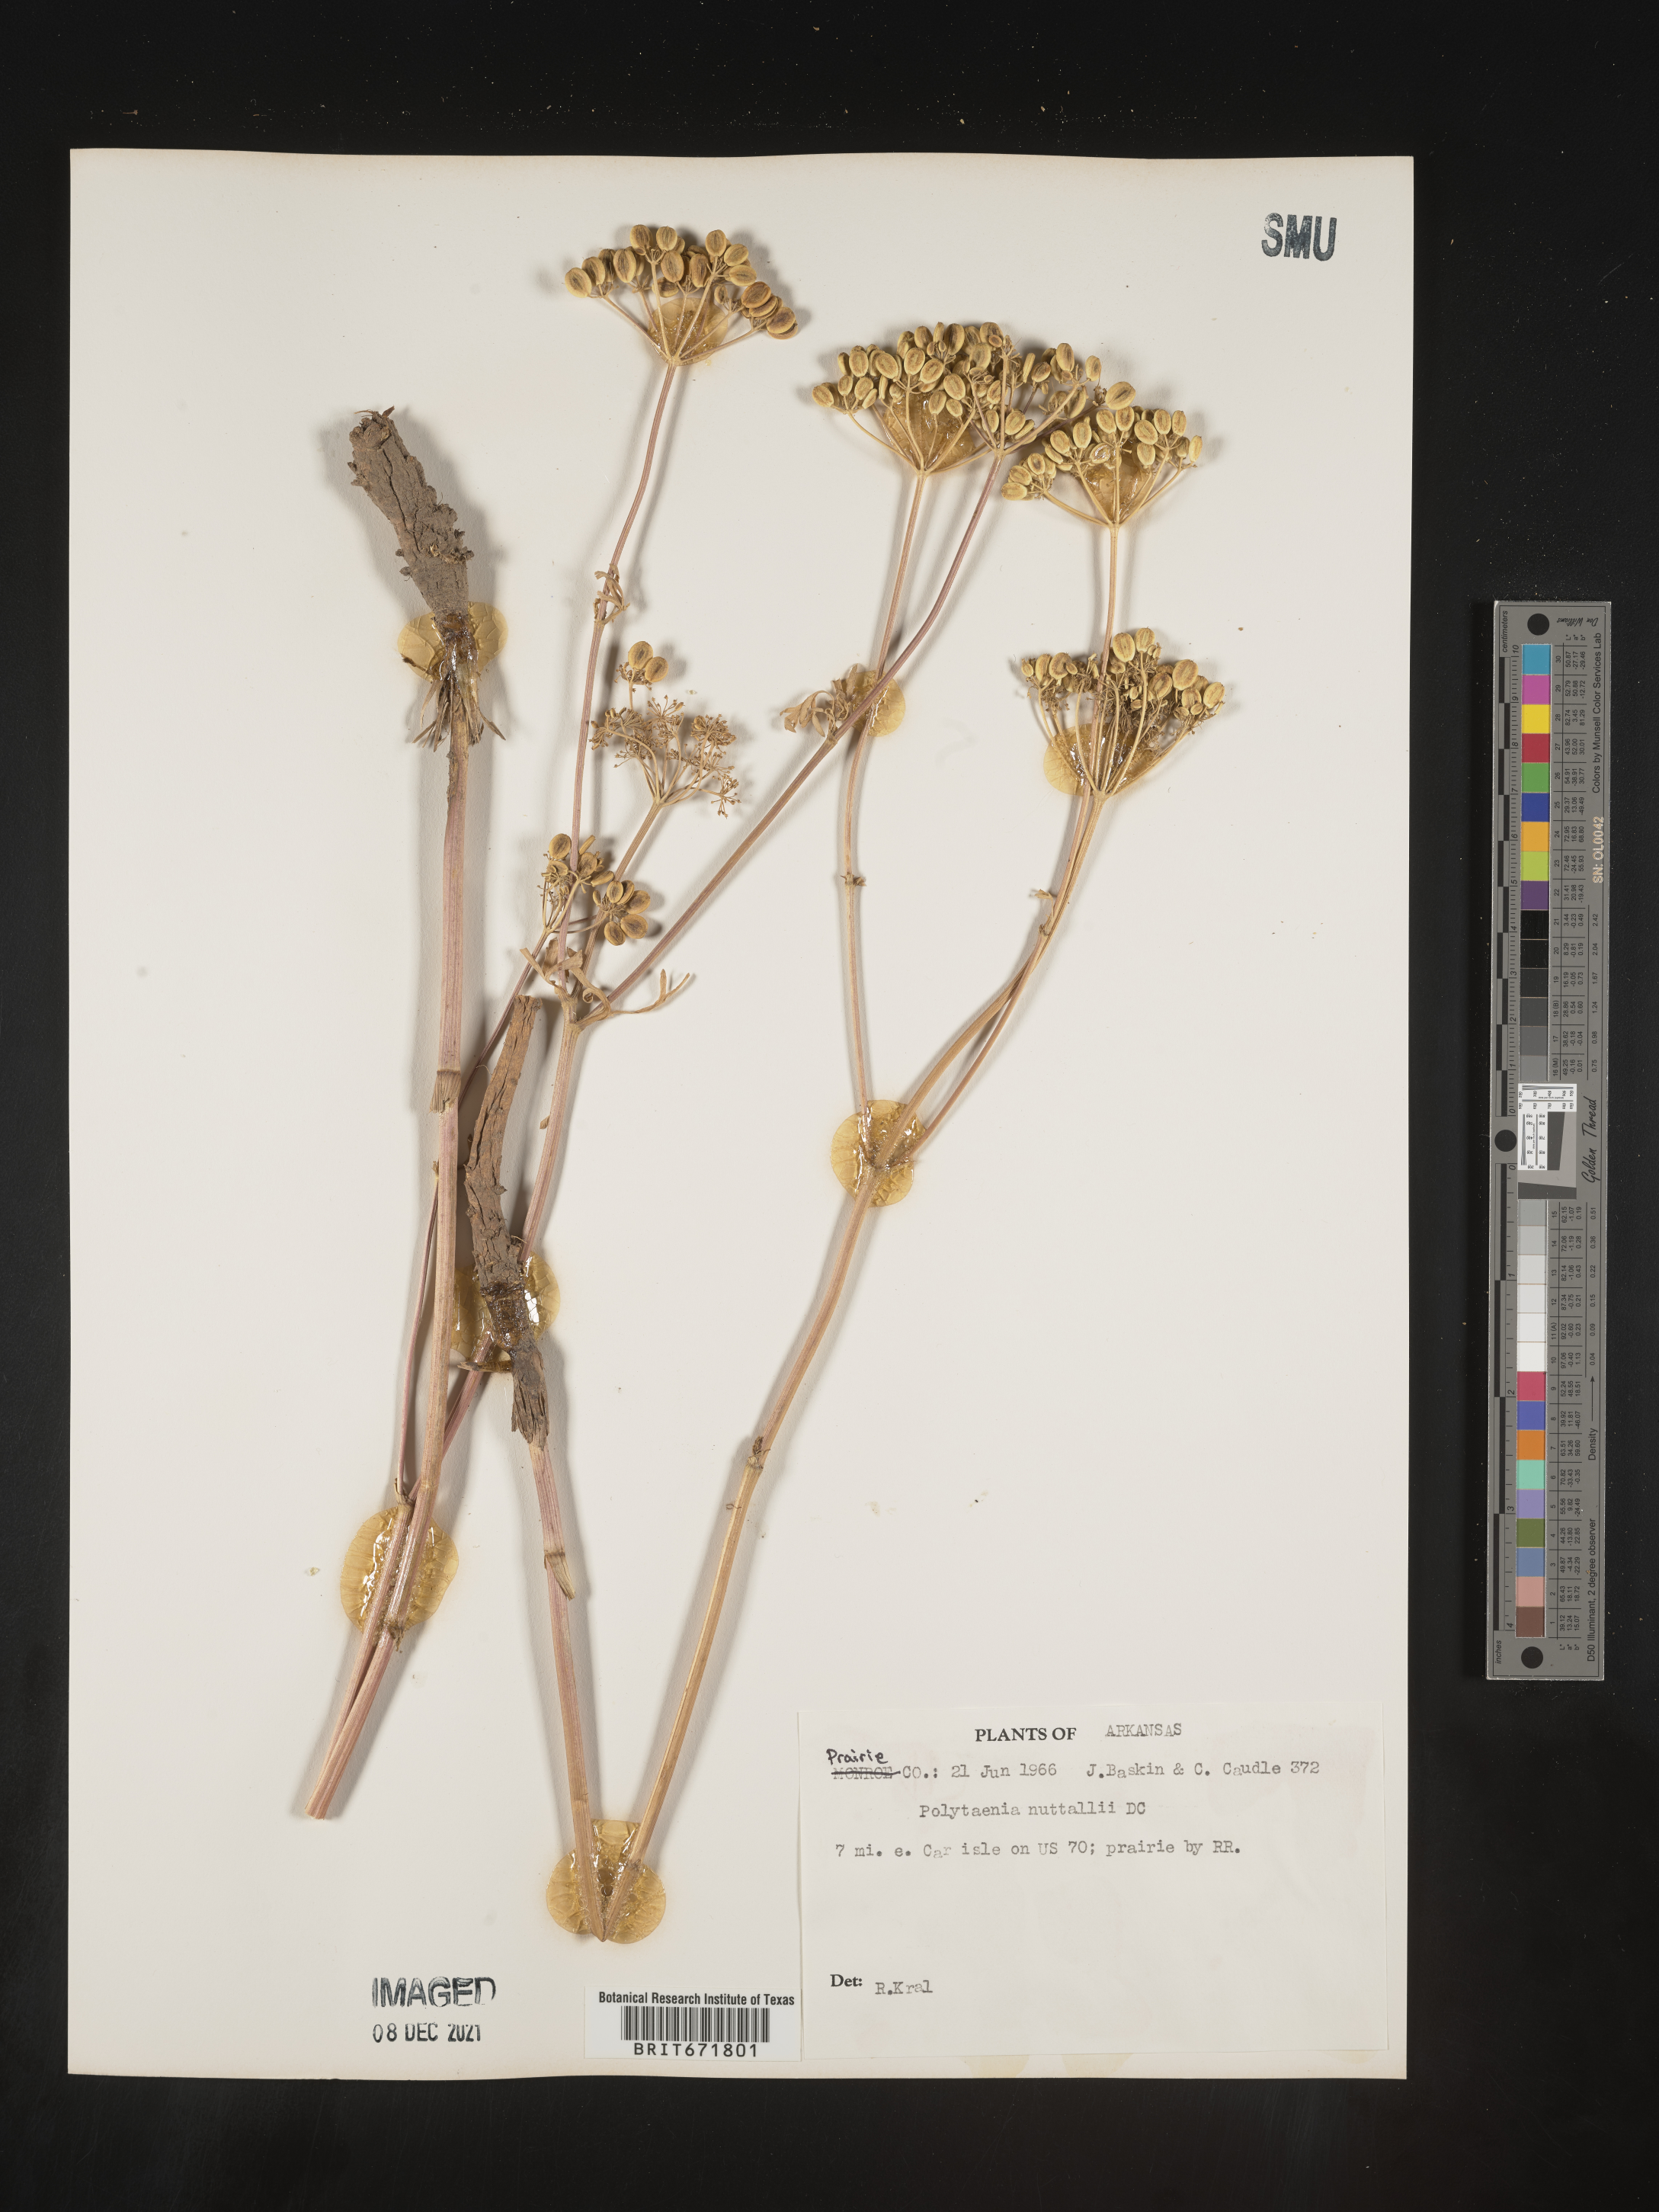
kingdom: Plantae
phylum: Tracheophyta
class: Magnoliopsida
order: Apiales
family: Apiaceae
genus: Polytaenia
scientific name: Polytaenia nuttallii
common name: Prairie-parsley
